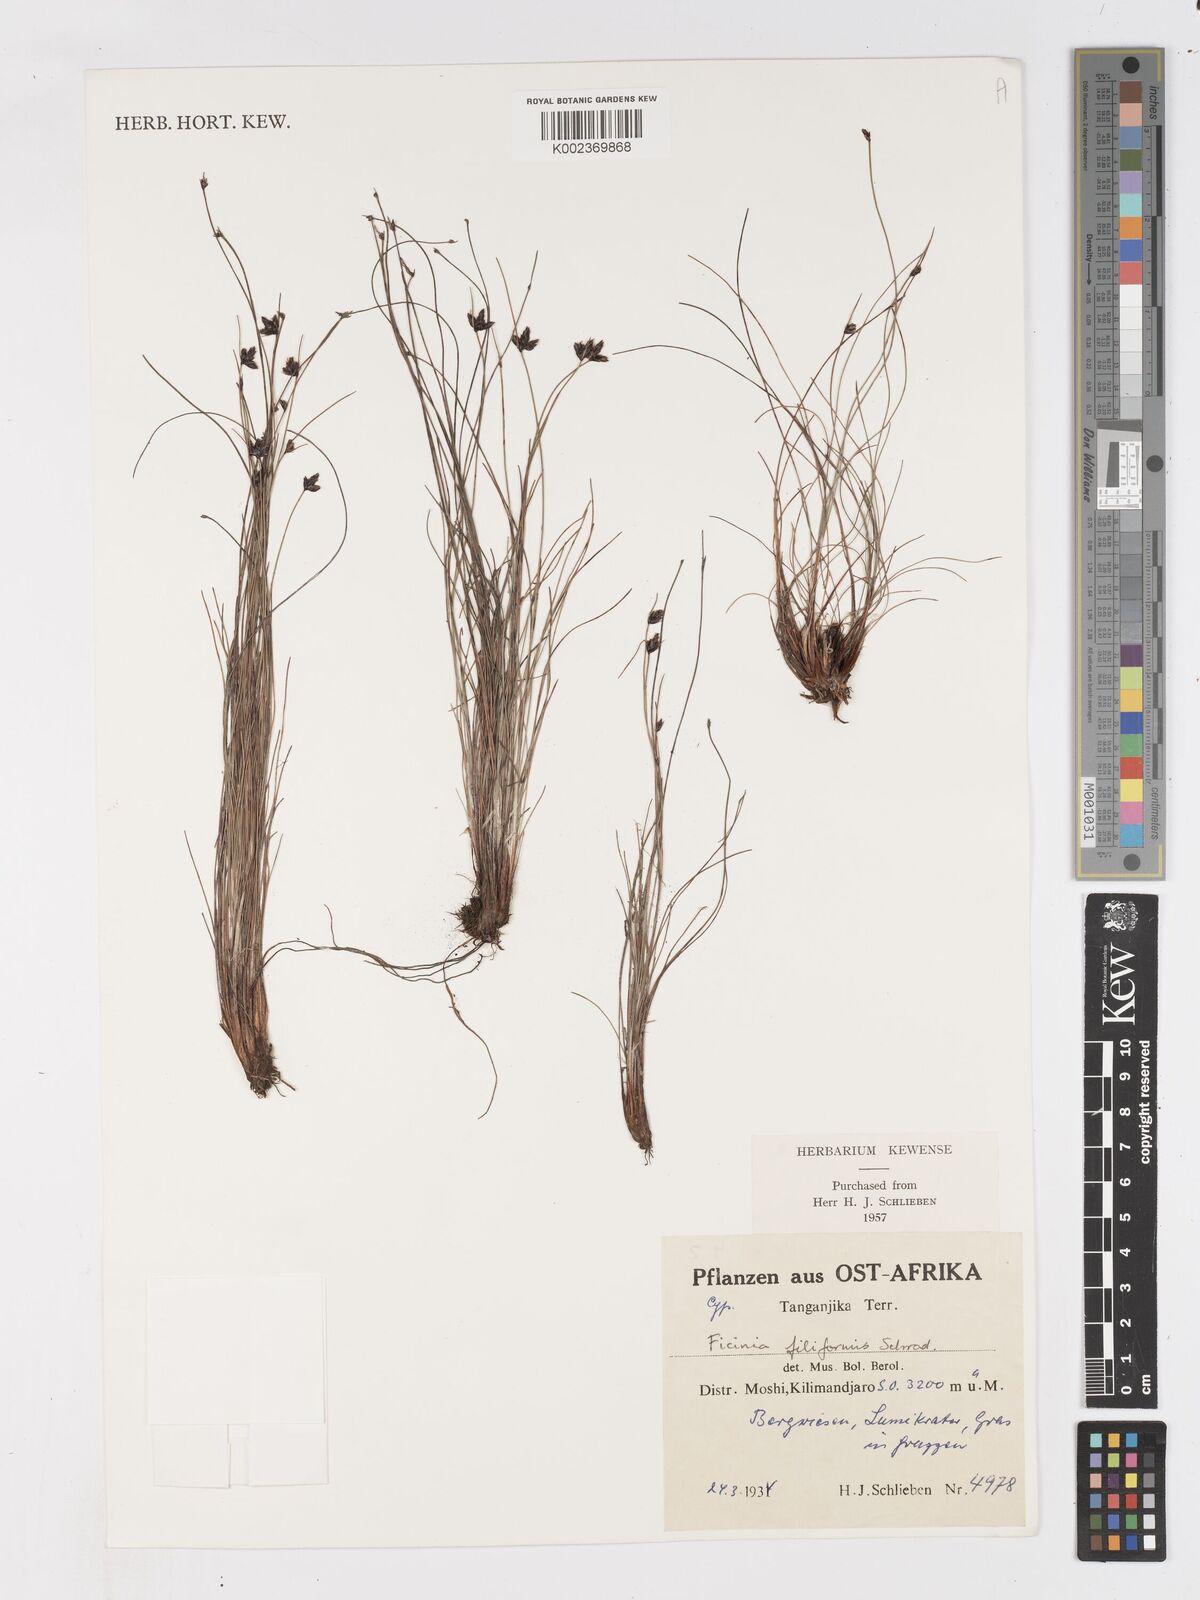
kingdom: Plantae
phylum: Tracheophyta
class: Liliopsida
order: Poales
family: Cyperaceae
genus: Ficinia
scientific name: Ficinia filiformis
